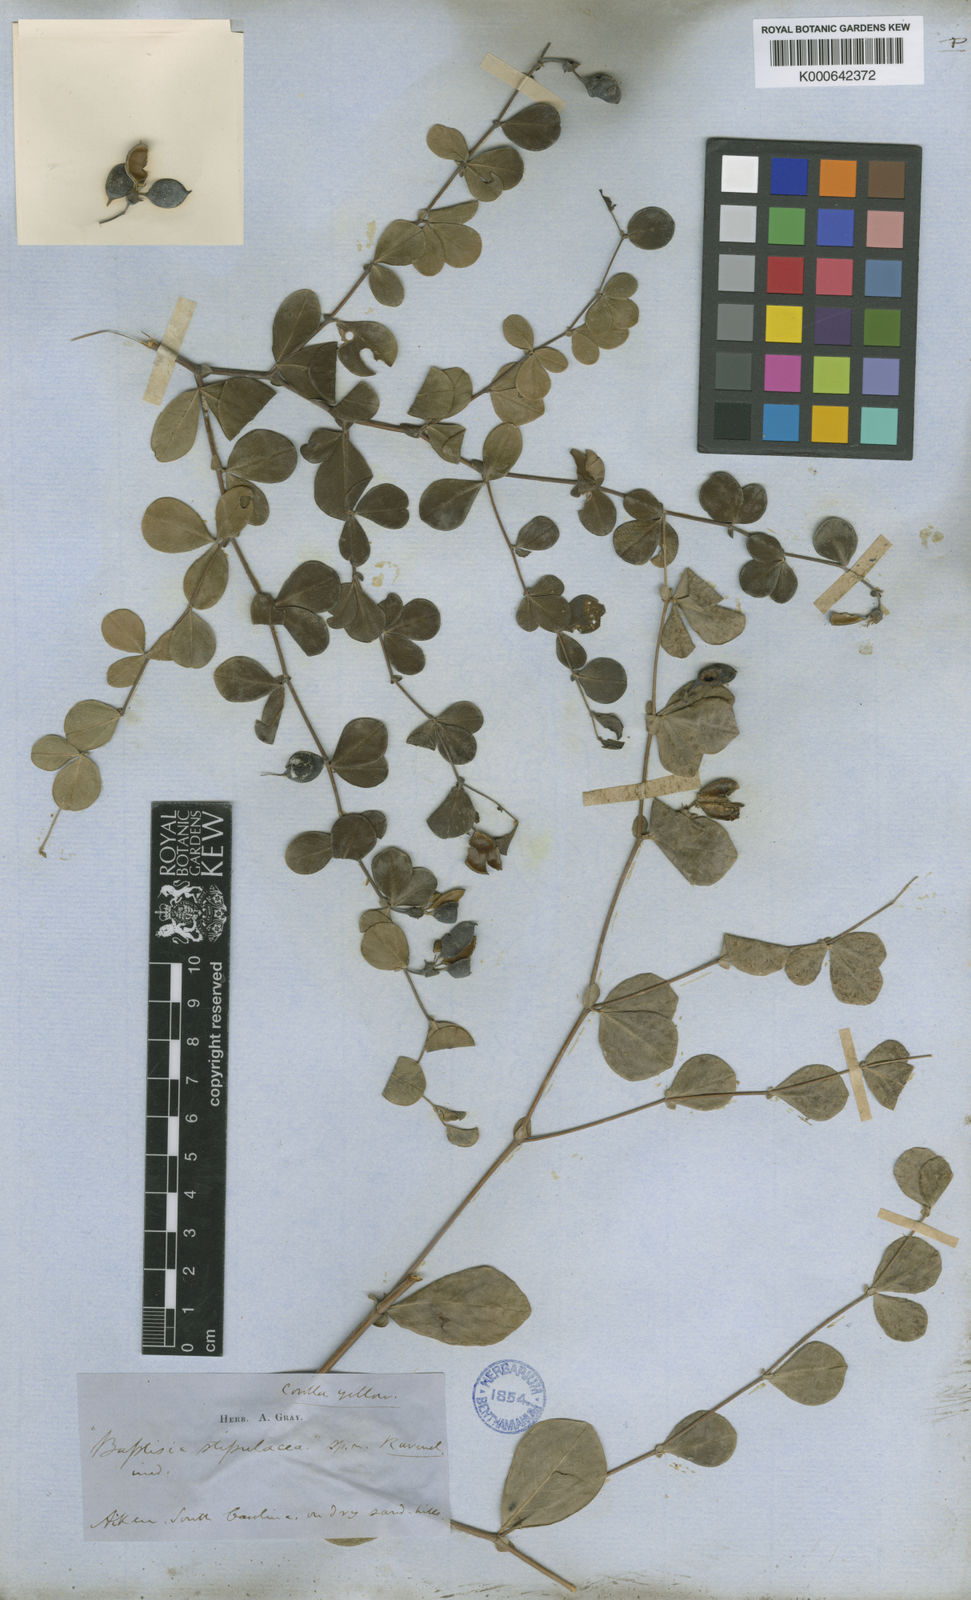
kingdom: Plantae
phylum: Tracheophyta
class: Magnoliopsida
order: Fabales
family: Fabaceae
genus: Baptisia
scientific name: Baptisia microphylla
